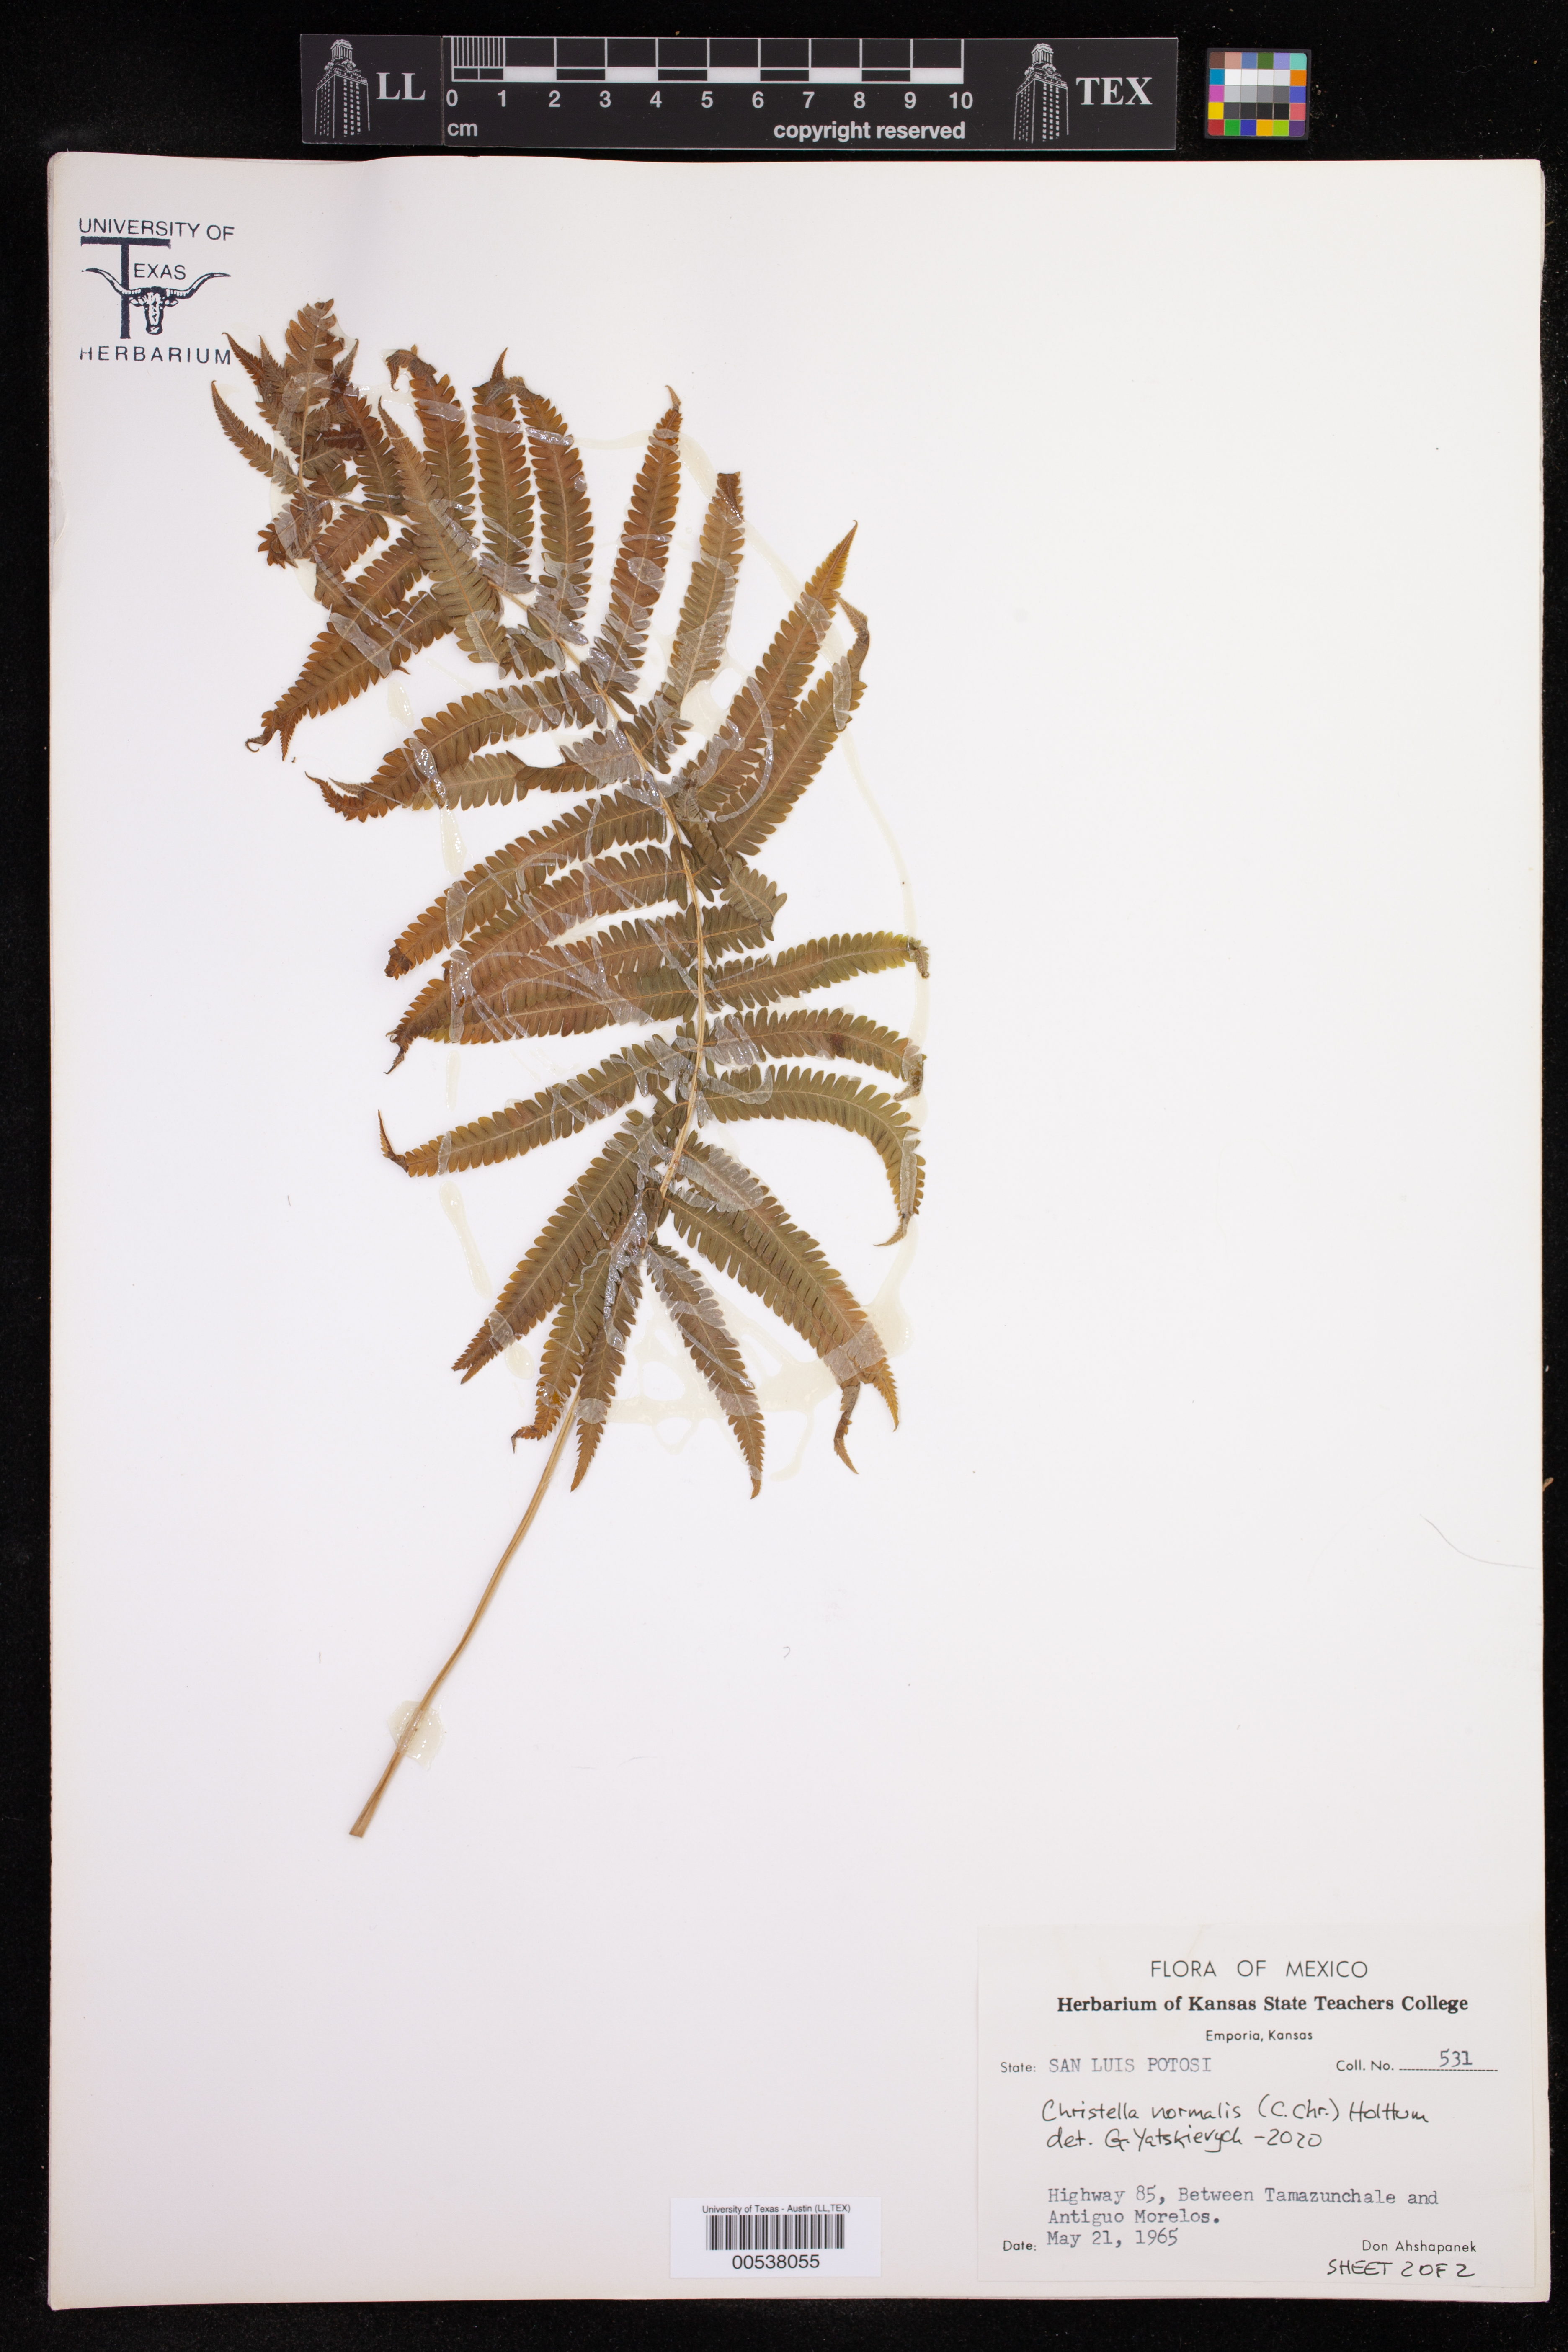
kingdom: Plantae
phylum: Tracheophyta
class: Polypodiopsida
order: Polypodiales
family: Thelypteridaceae
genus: Pelazoneuron
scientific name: Pelazoneuron kunthii
